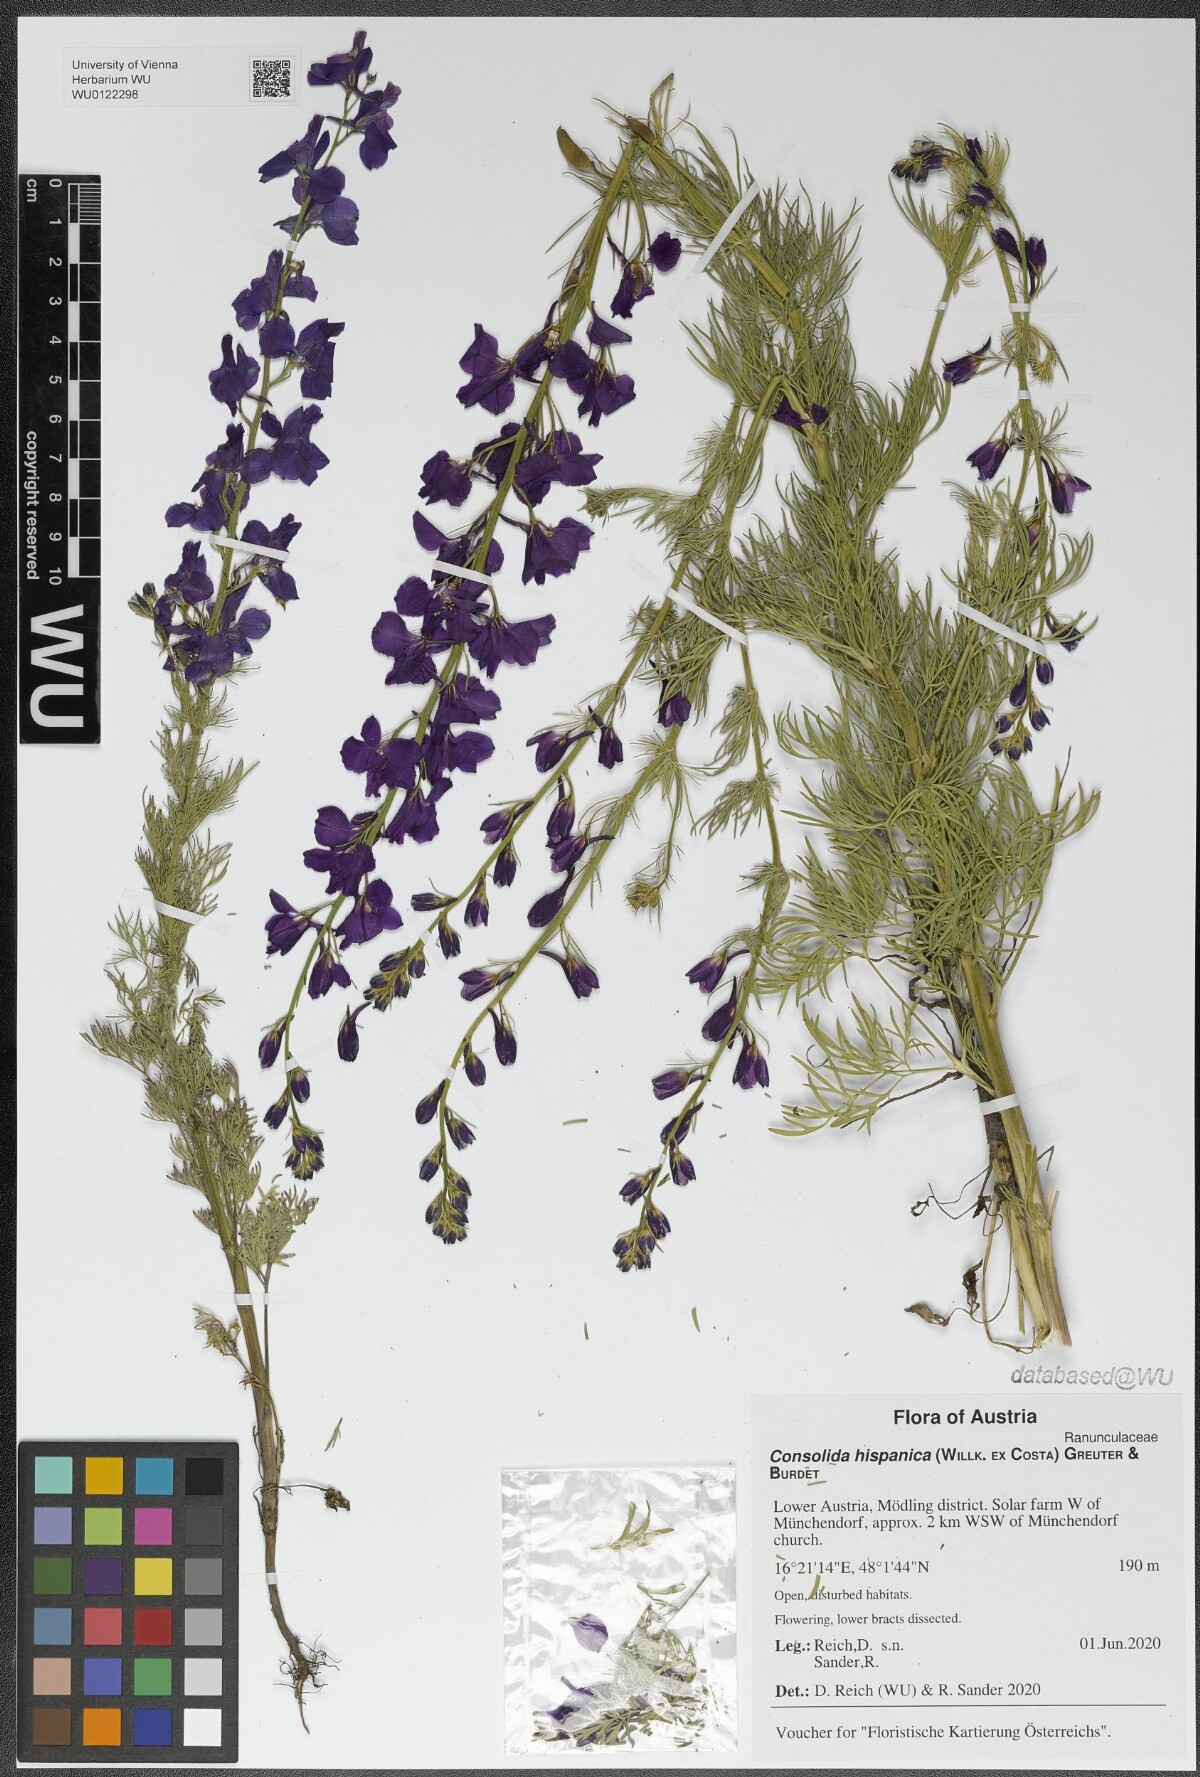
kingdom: Plantae
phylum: Tracheophyta
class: Magnoliopsida
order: Ranunculales
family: Ranunculaceae
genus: Delphinium
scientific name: Delphinium hispanicum
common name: Oriental knight's-spur
